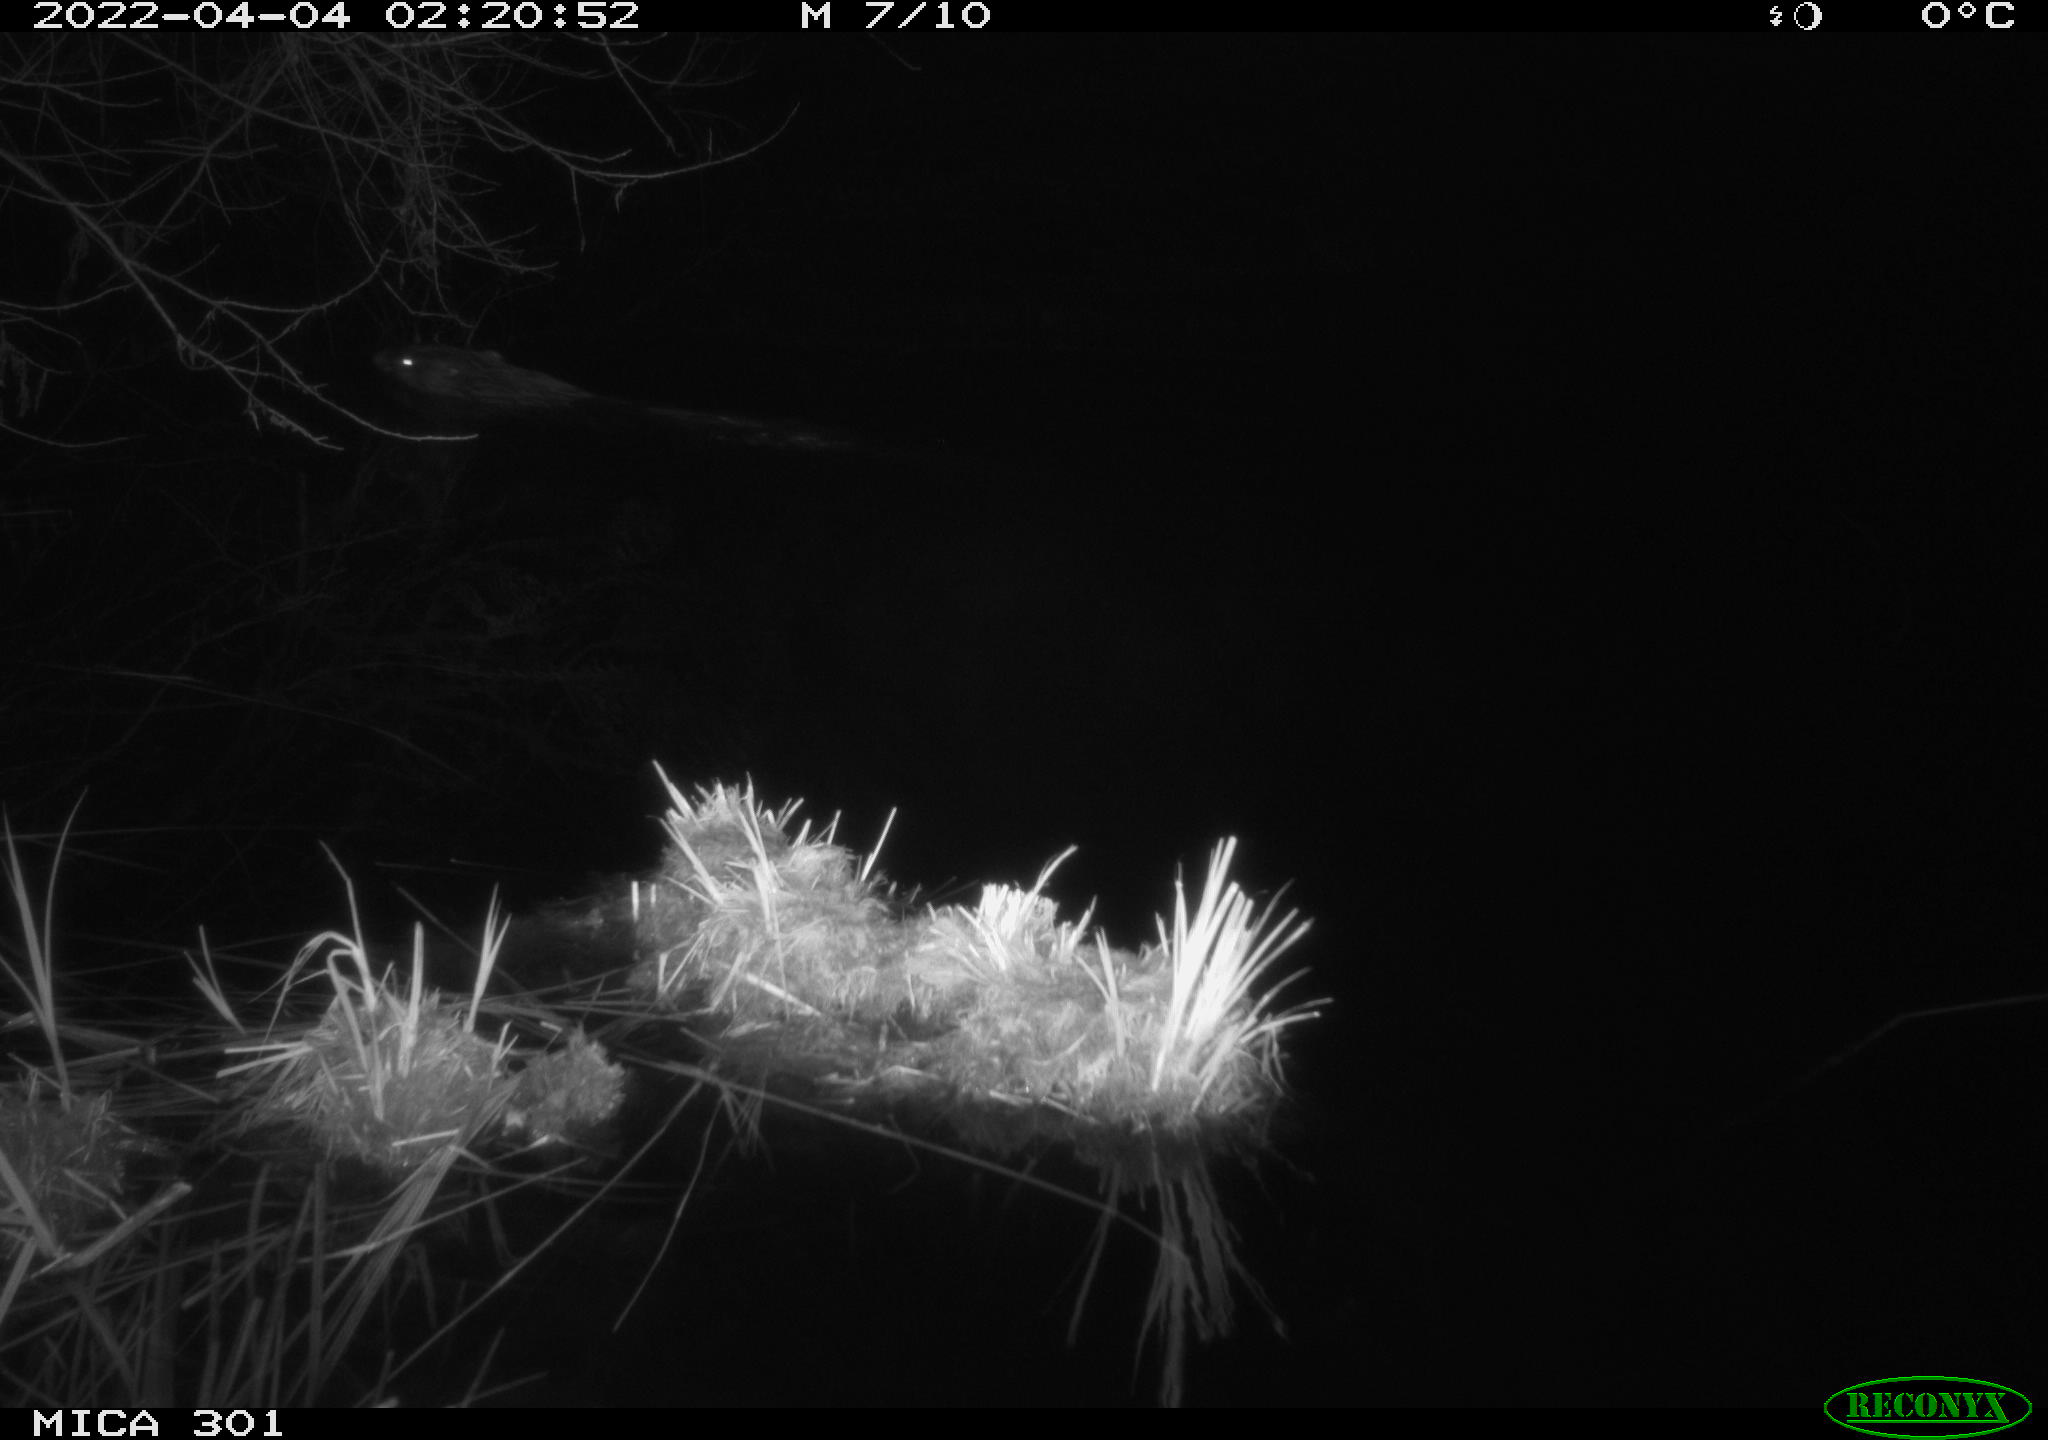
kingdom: Animalia
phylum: Chordata
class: Mammalia
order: Rodentia
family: Castoridae
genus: Castor
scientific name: Castor fiber
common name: Eurasian beaver
